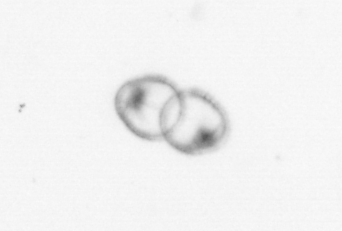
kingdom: Chromista
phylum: Myzozoa
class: Dinophyceae
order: Noctilucales
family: Noctilucaceae
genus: Noctiluca
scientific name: Noctiluca scintillans
